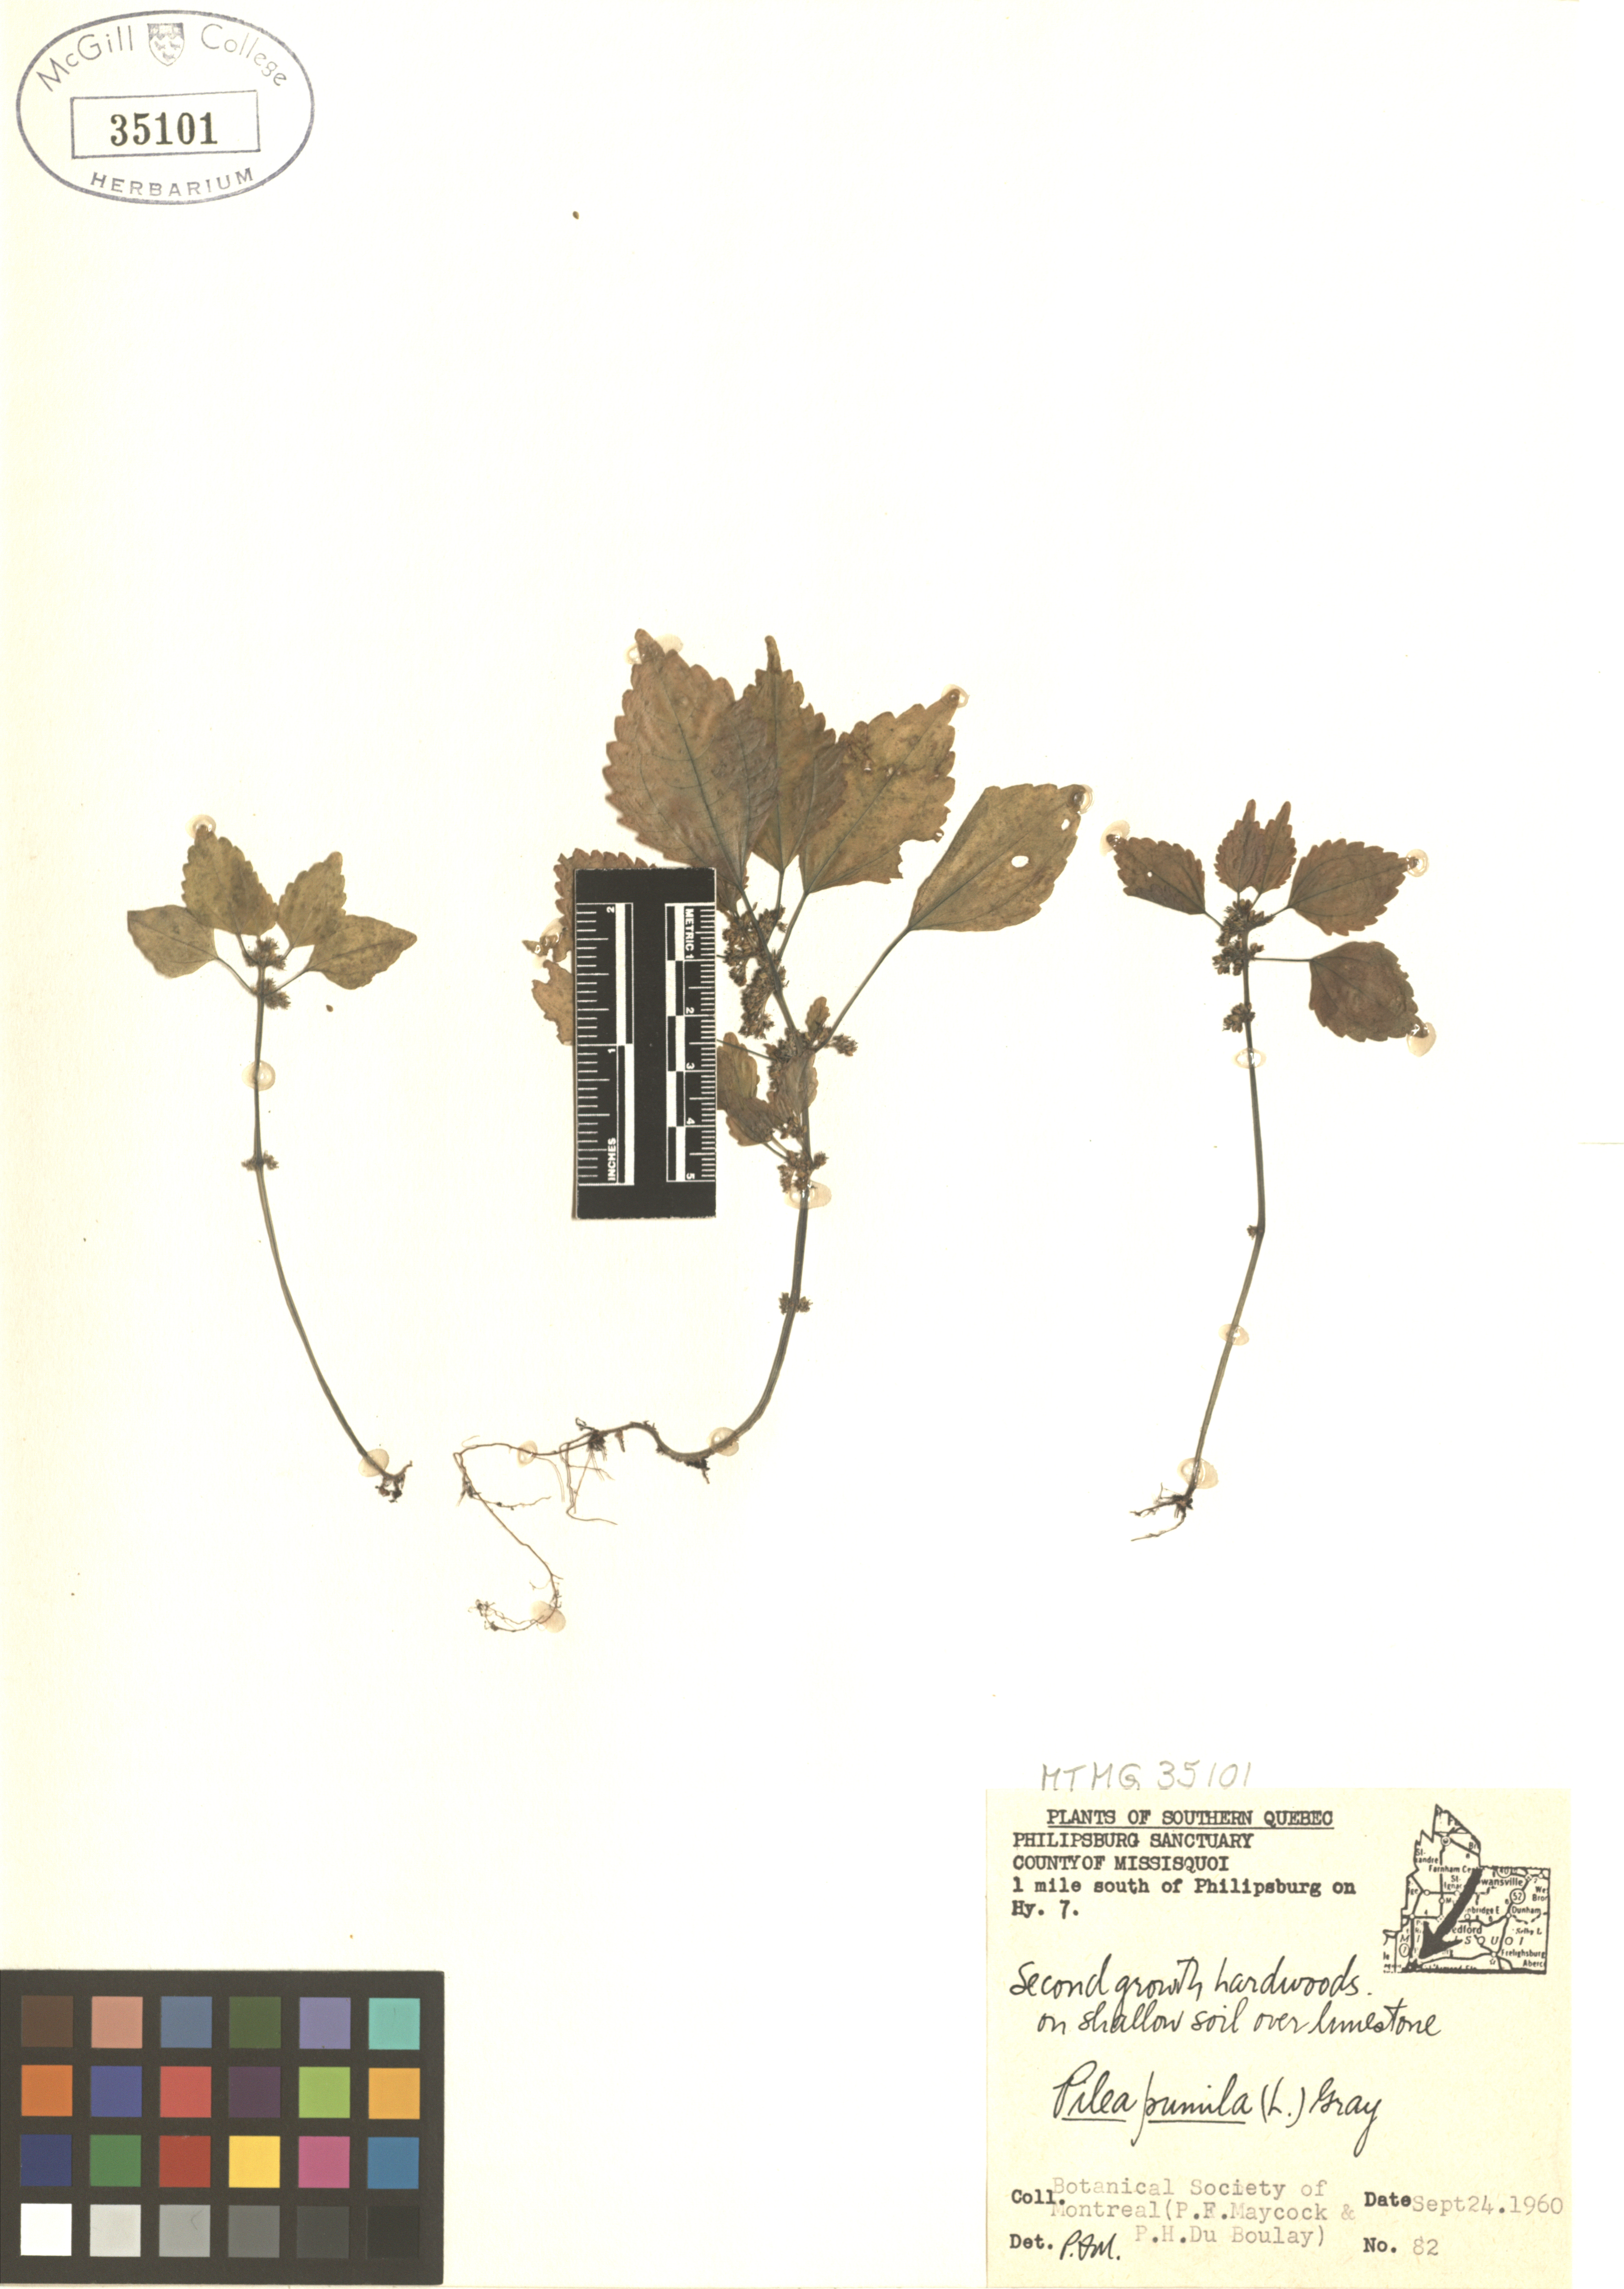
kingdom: Plantae
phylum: Tracheophyta
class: Magnoliopsida
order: Rosales
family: Urticaceae
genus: Pilea
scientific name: Pilea pumila
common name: Clearweed
